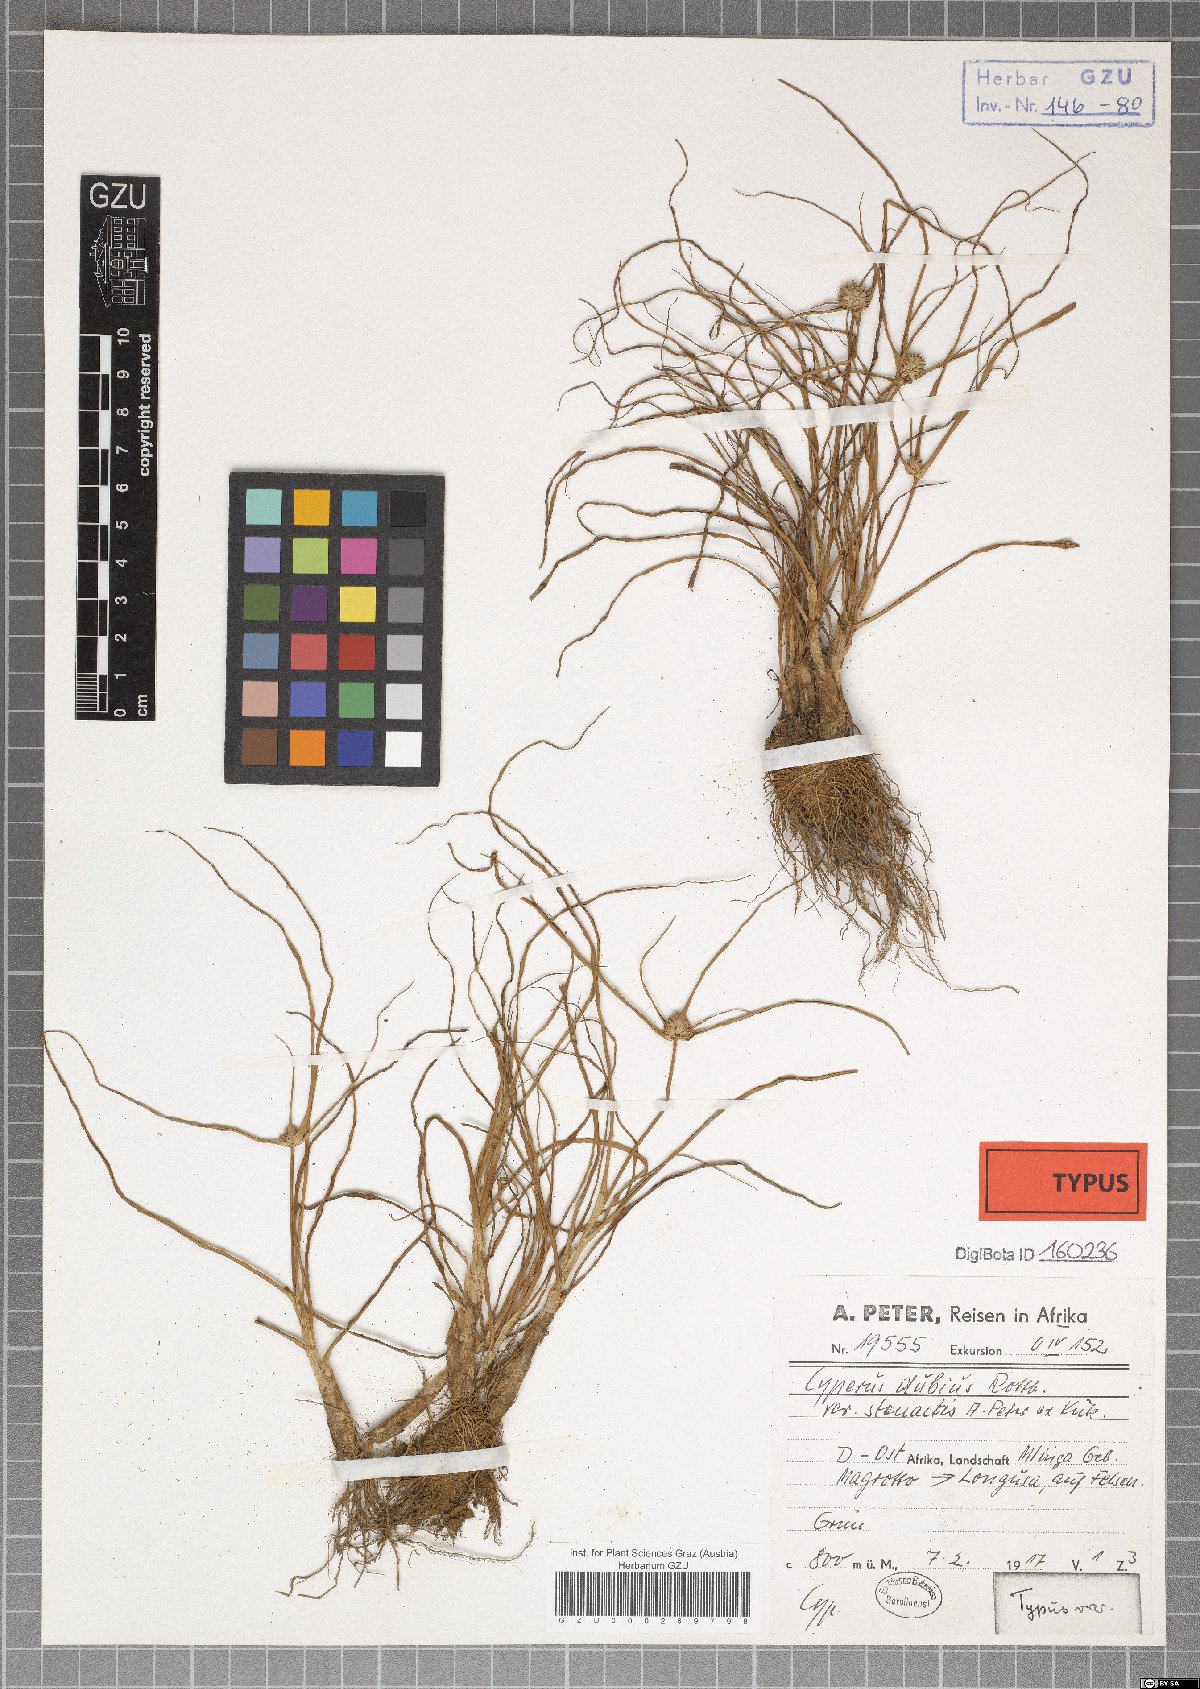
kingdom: Plantae
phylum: Tracheophyta
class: Liliopsida
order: Poales
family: Cyperaceae
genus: Cyperus
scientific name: Cyperus dubius
